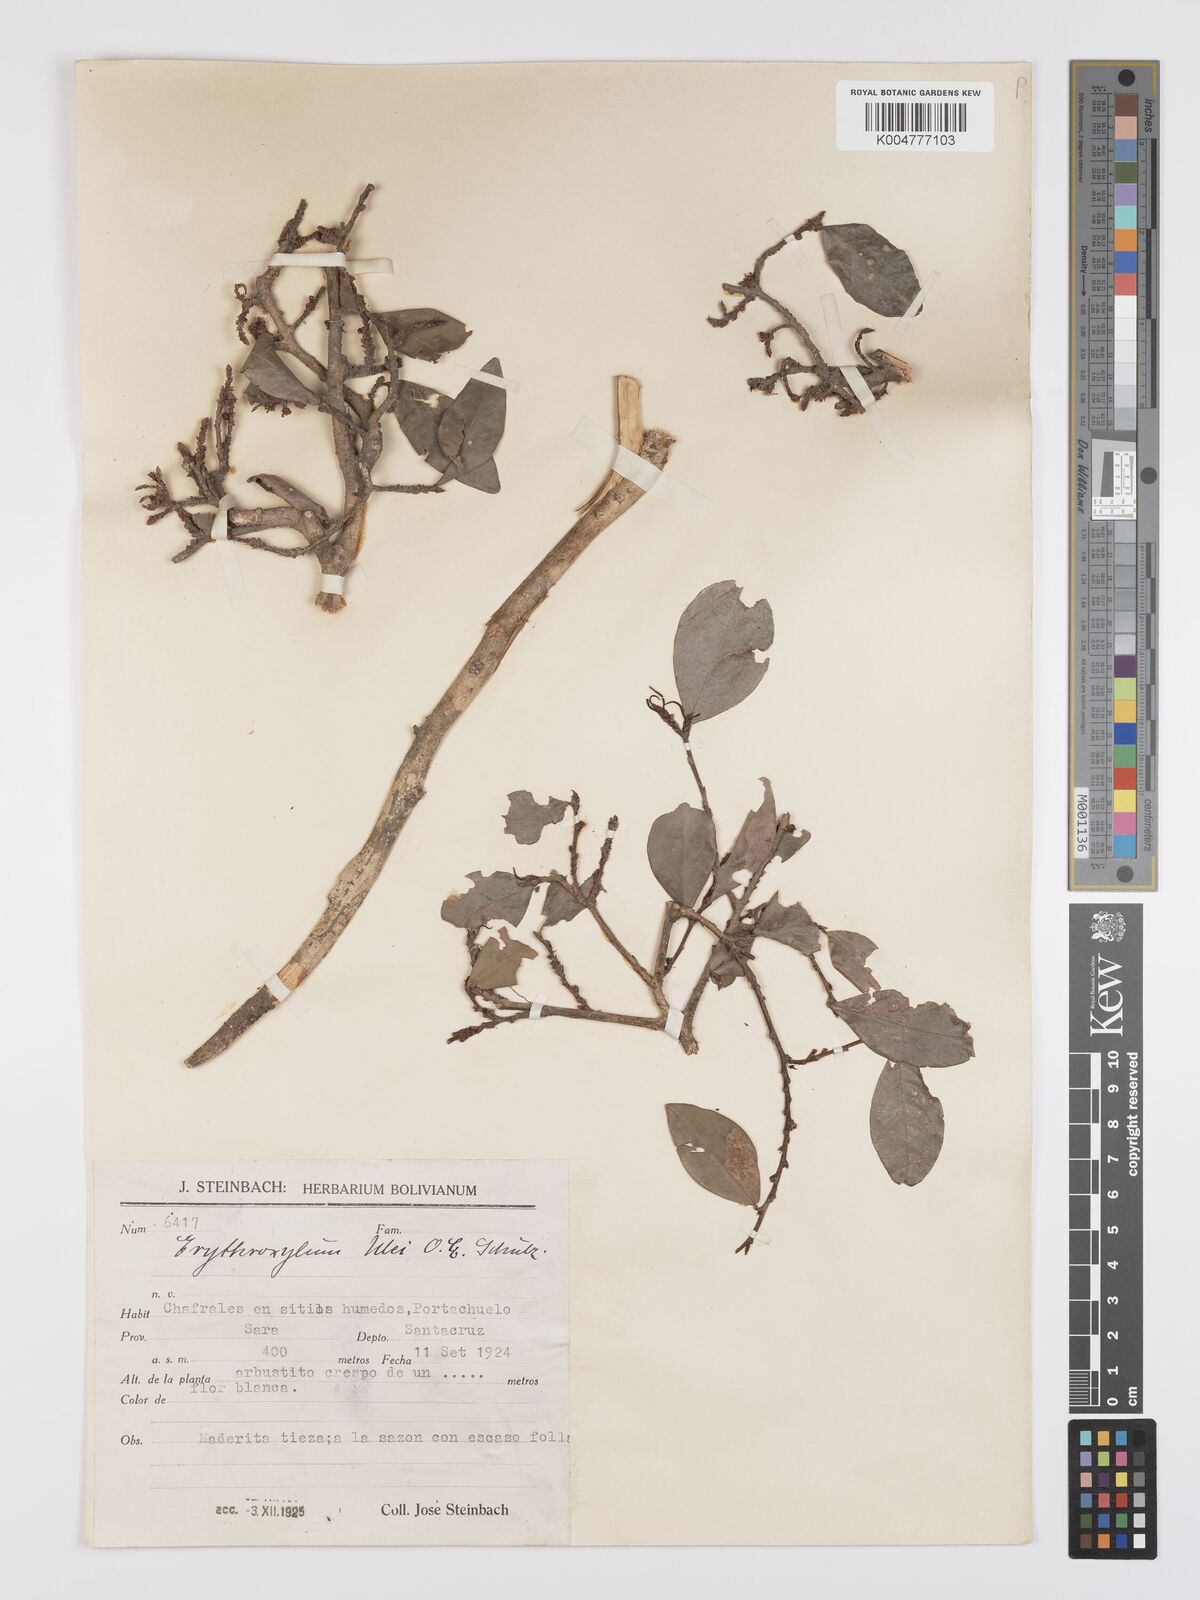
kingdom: Plantae
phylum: Tracheophyta
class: Magnoliopsida
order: Malpighiales
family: Erythroxylaceae
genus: Erythroxylum
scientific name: Erythroxylum ulei
